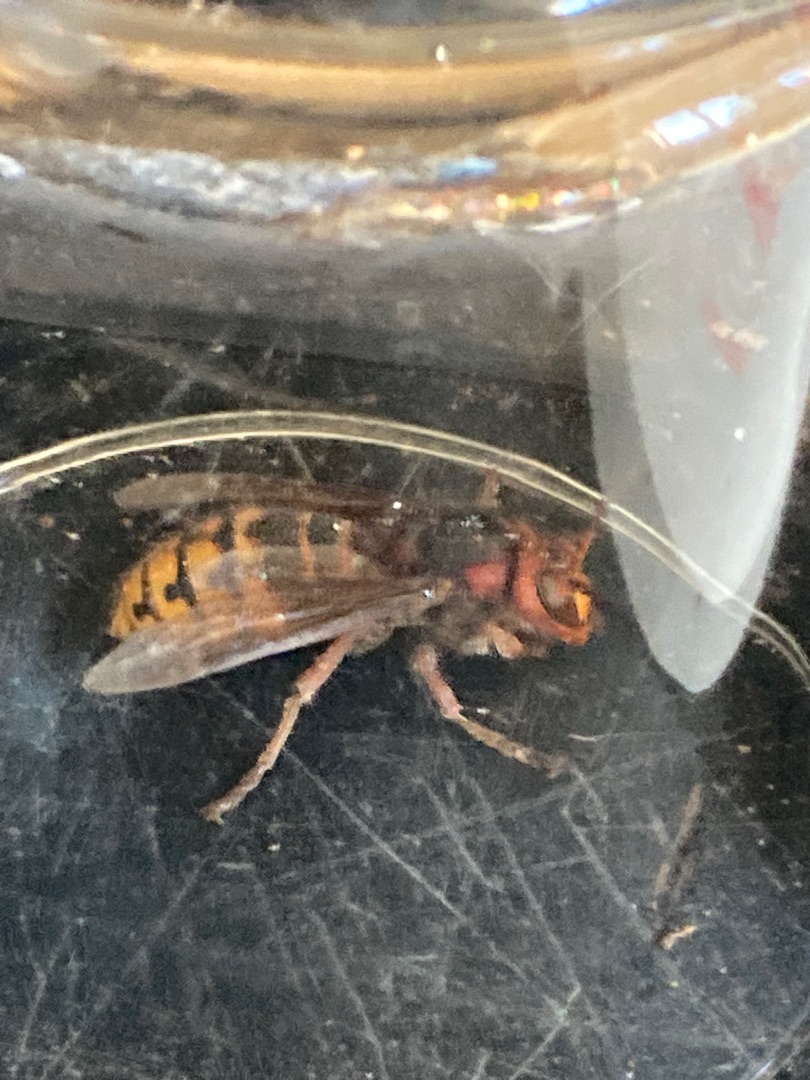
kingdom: Animalia
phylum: Arthropoda
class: Insecta
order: Hymenoptera
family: Vespidae
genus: Vespa
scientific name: Vespa crabro
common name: Stor gedehams
